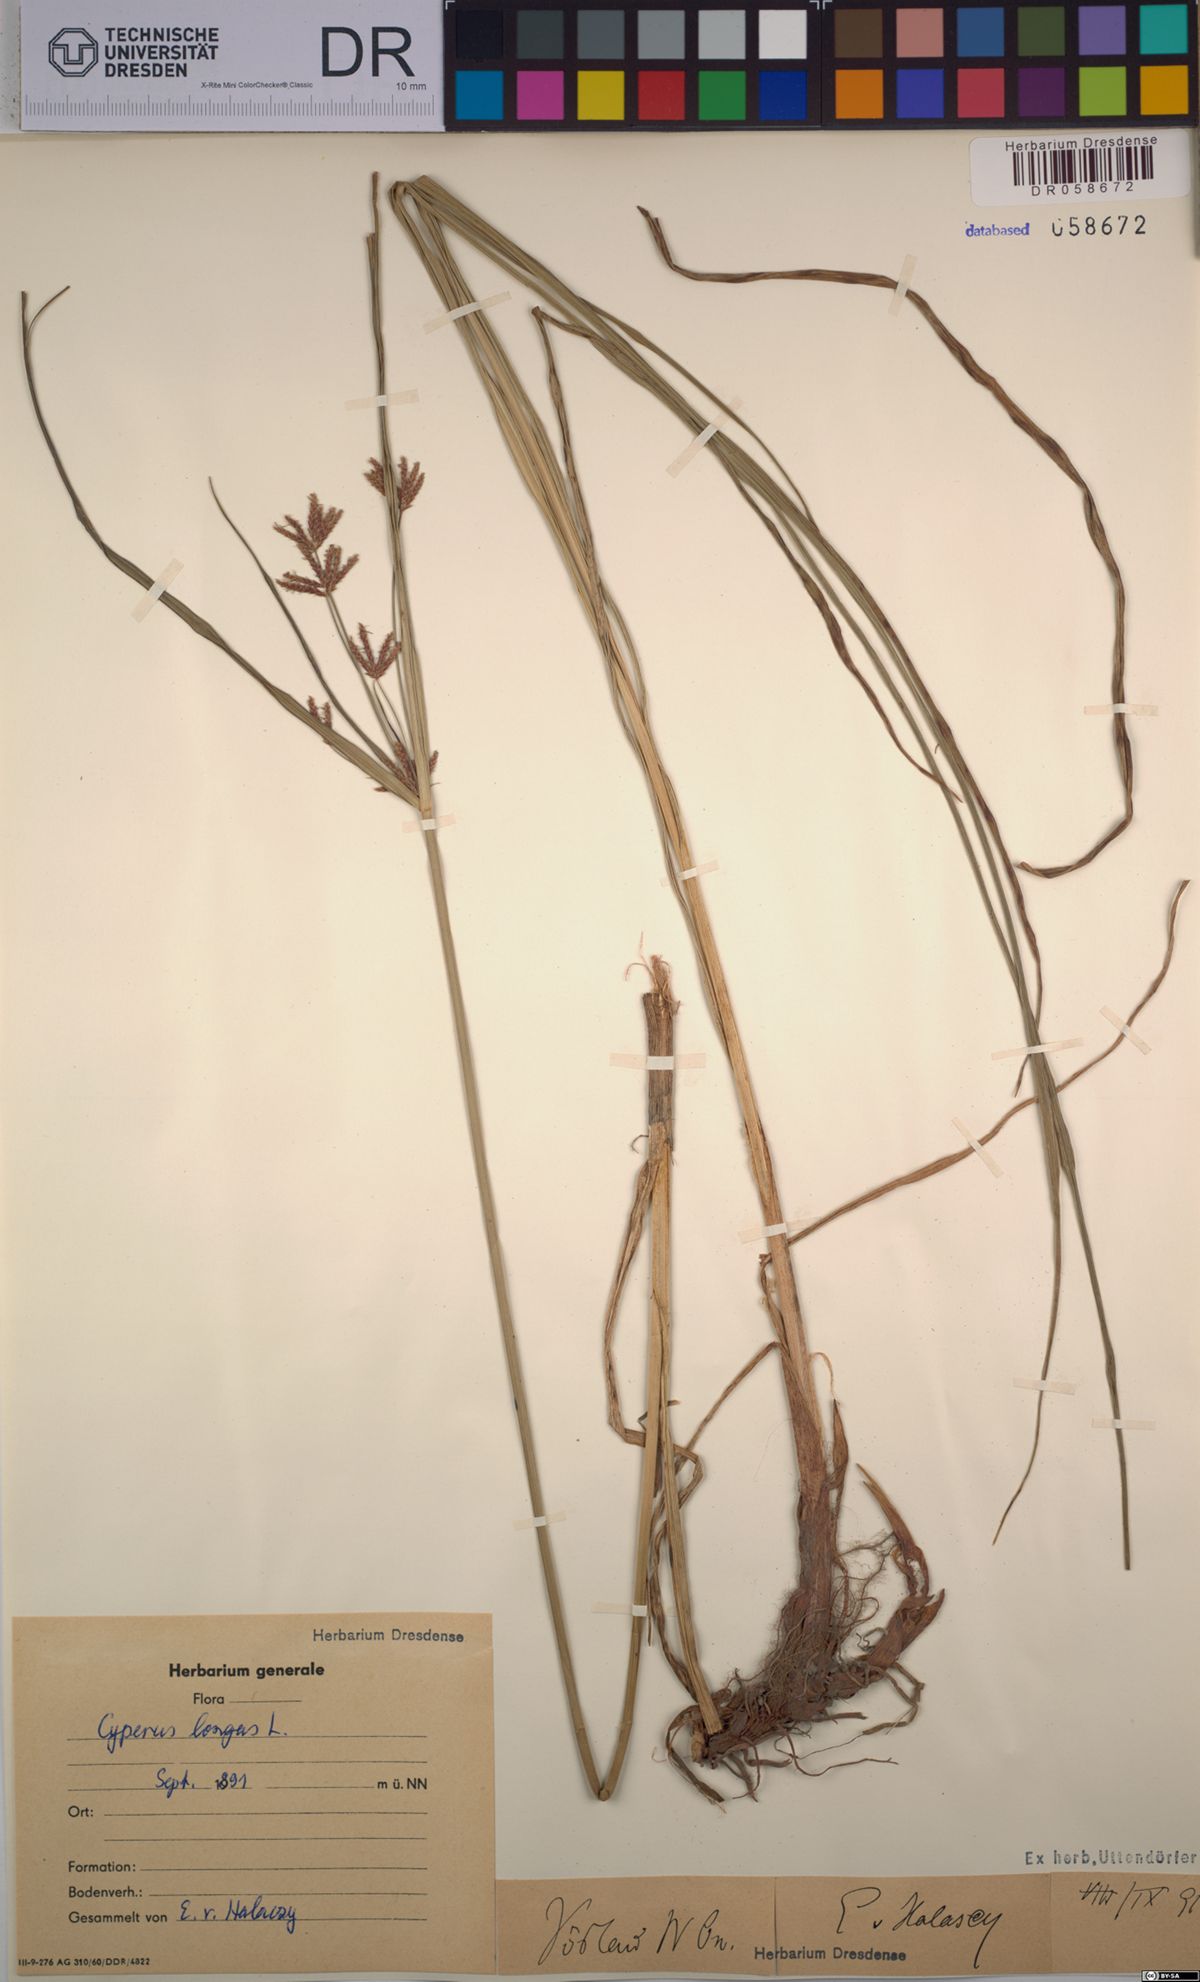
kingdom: Plantae
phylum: Tracheophyta
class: Liliopsida
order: Poales
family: Cyperaceae
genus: Cyperus
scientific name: Cyperus longus
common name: Galingale
